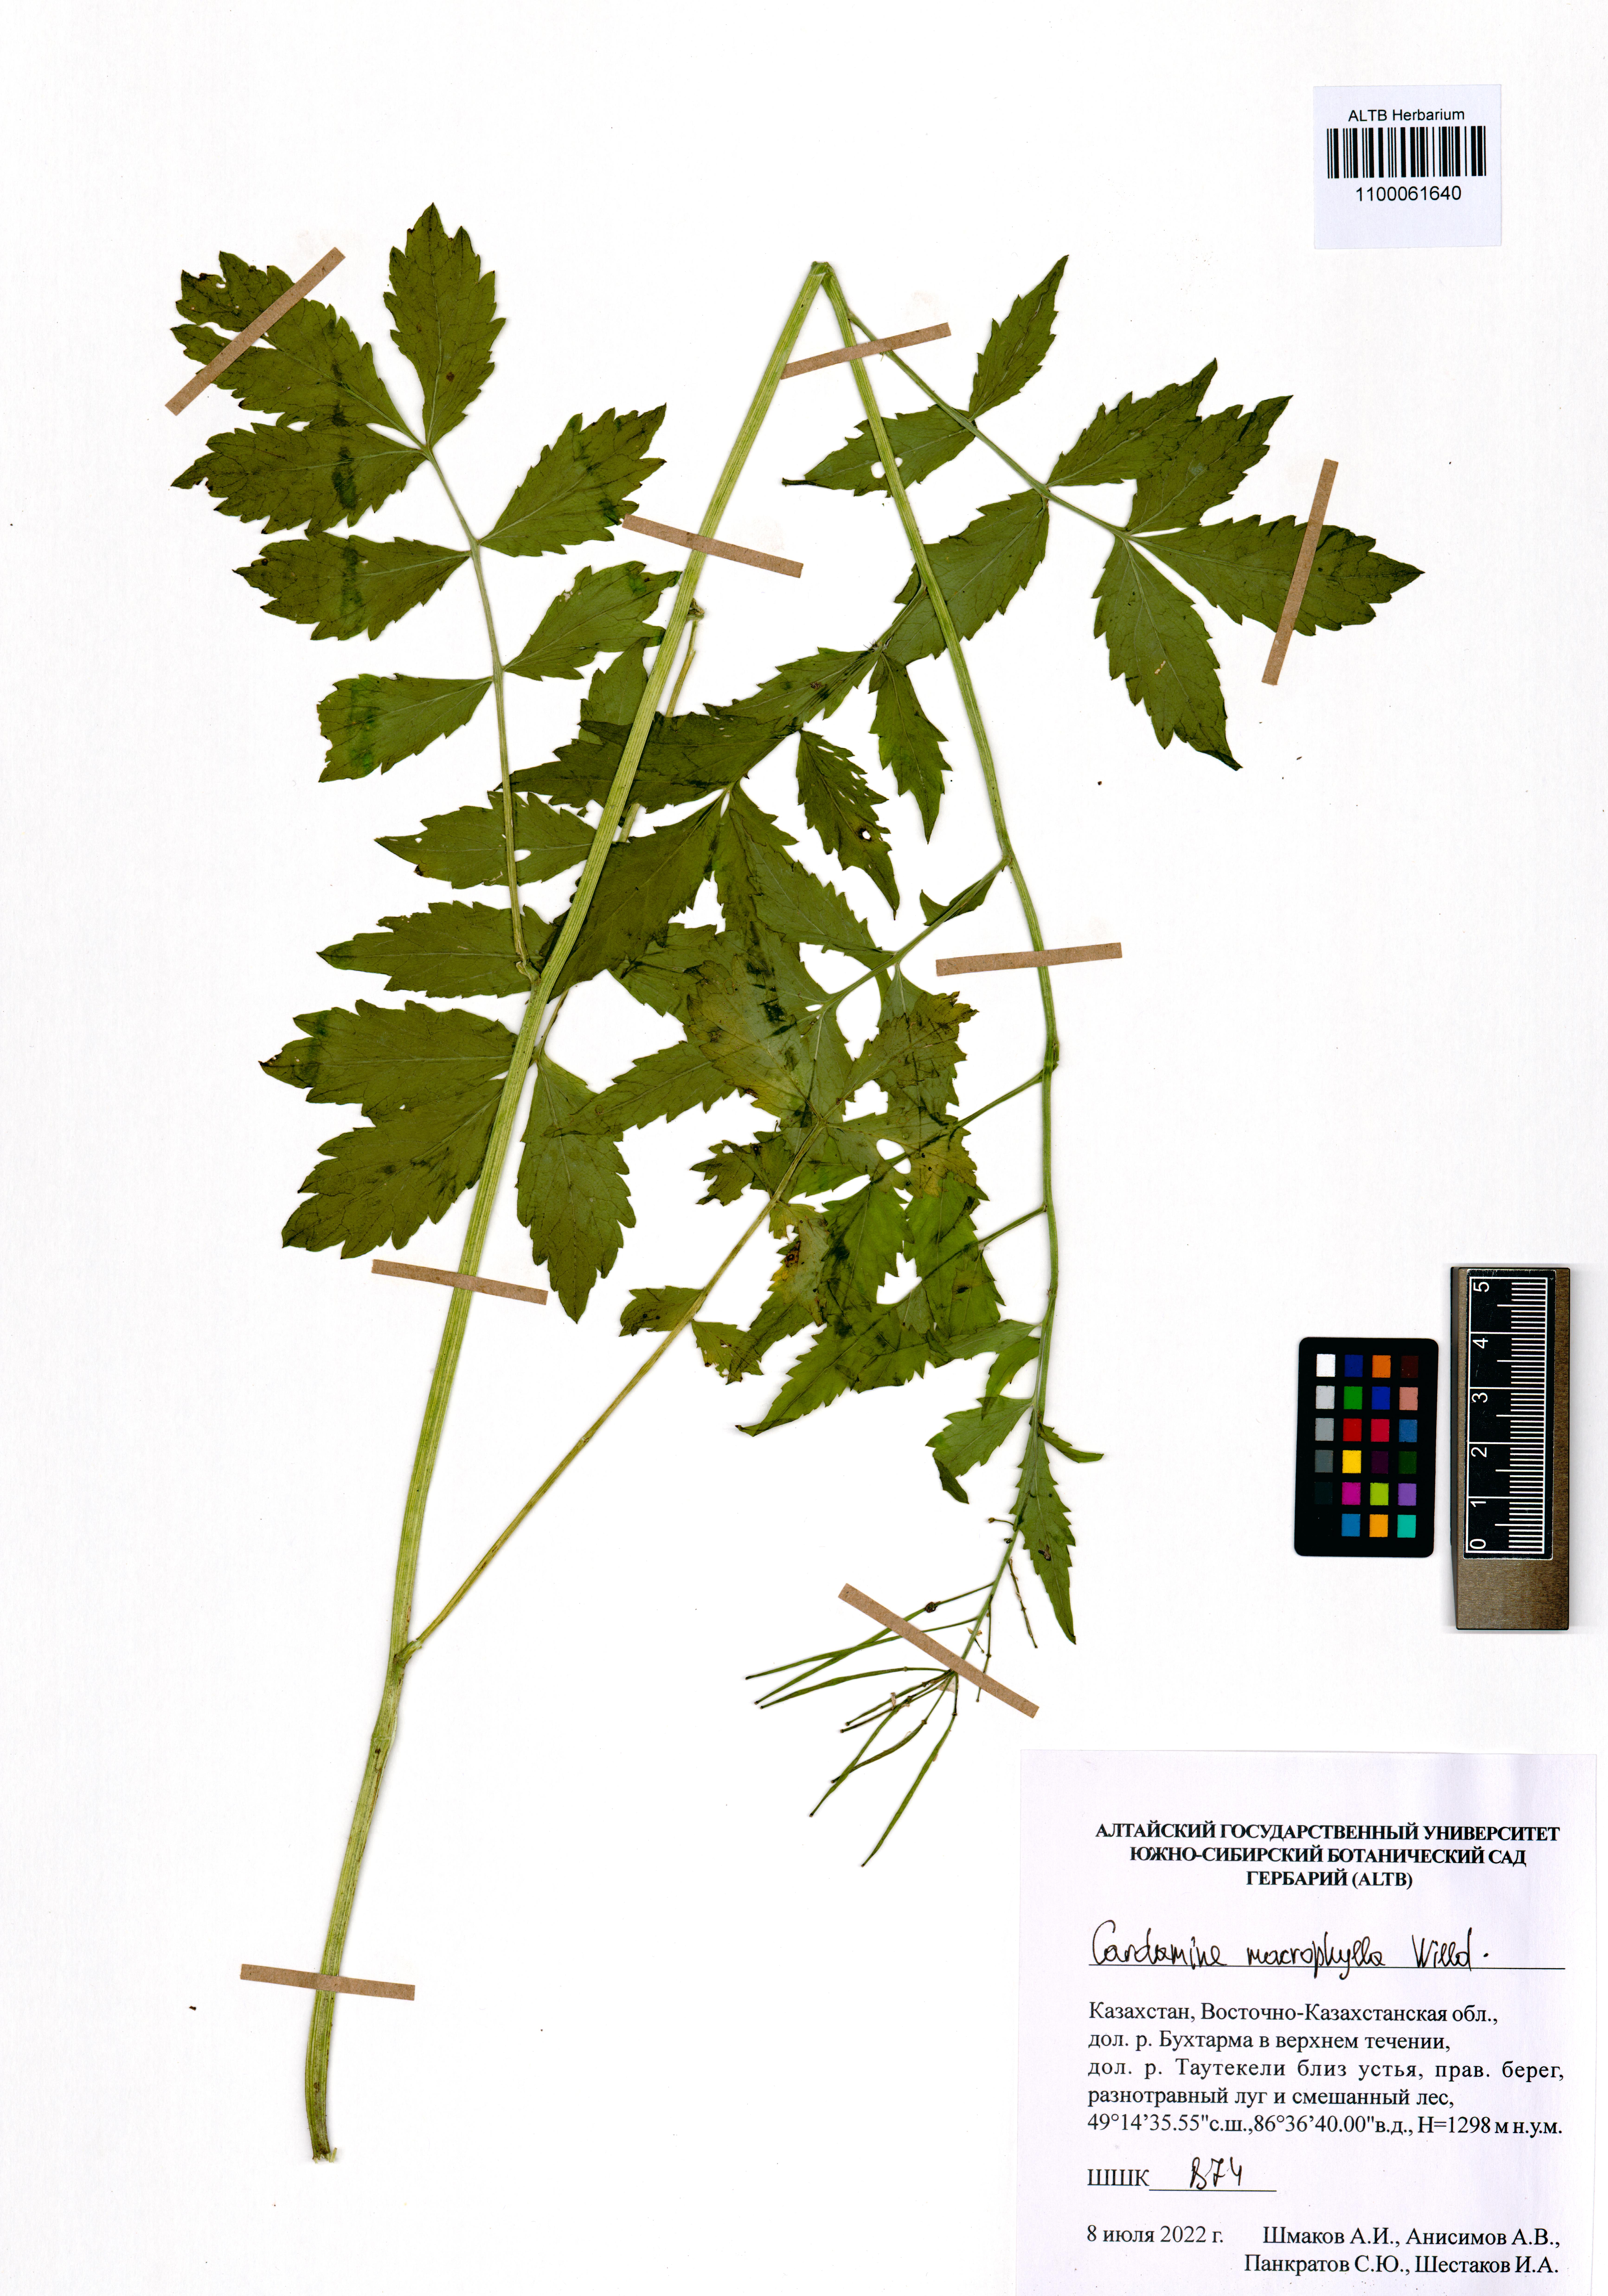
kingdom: Plantae
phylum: Tracheophyta
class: Magnoliopsida
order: Brassicales
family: Brassicaceae
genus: Cardamine
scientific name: Cardamine macrophylla
